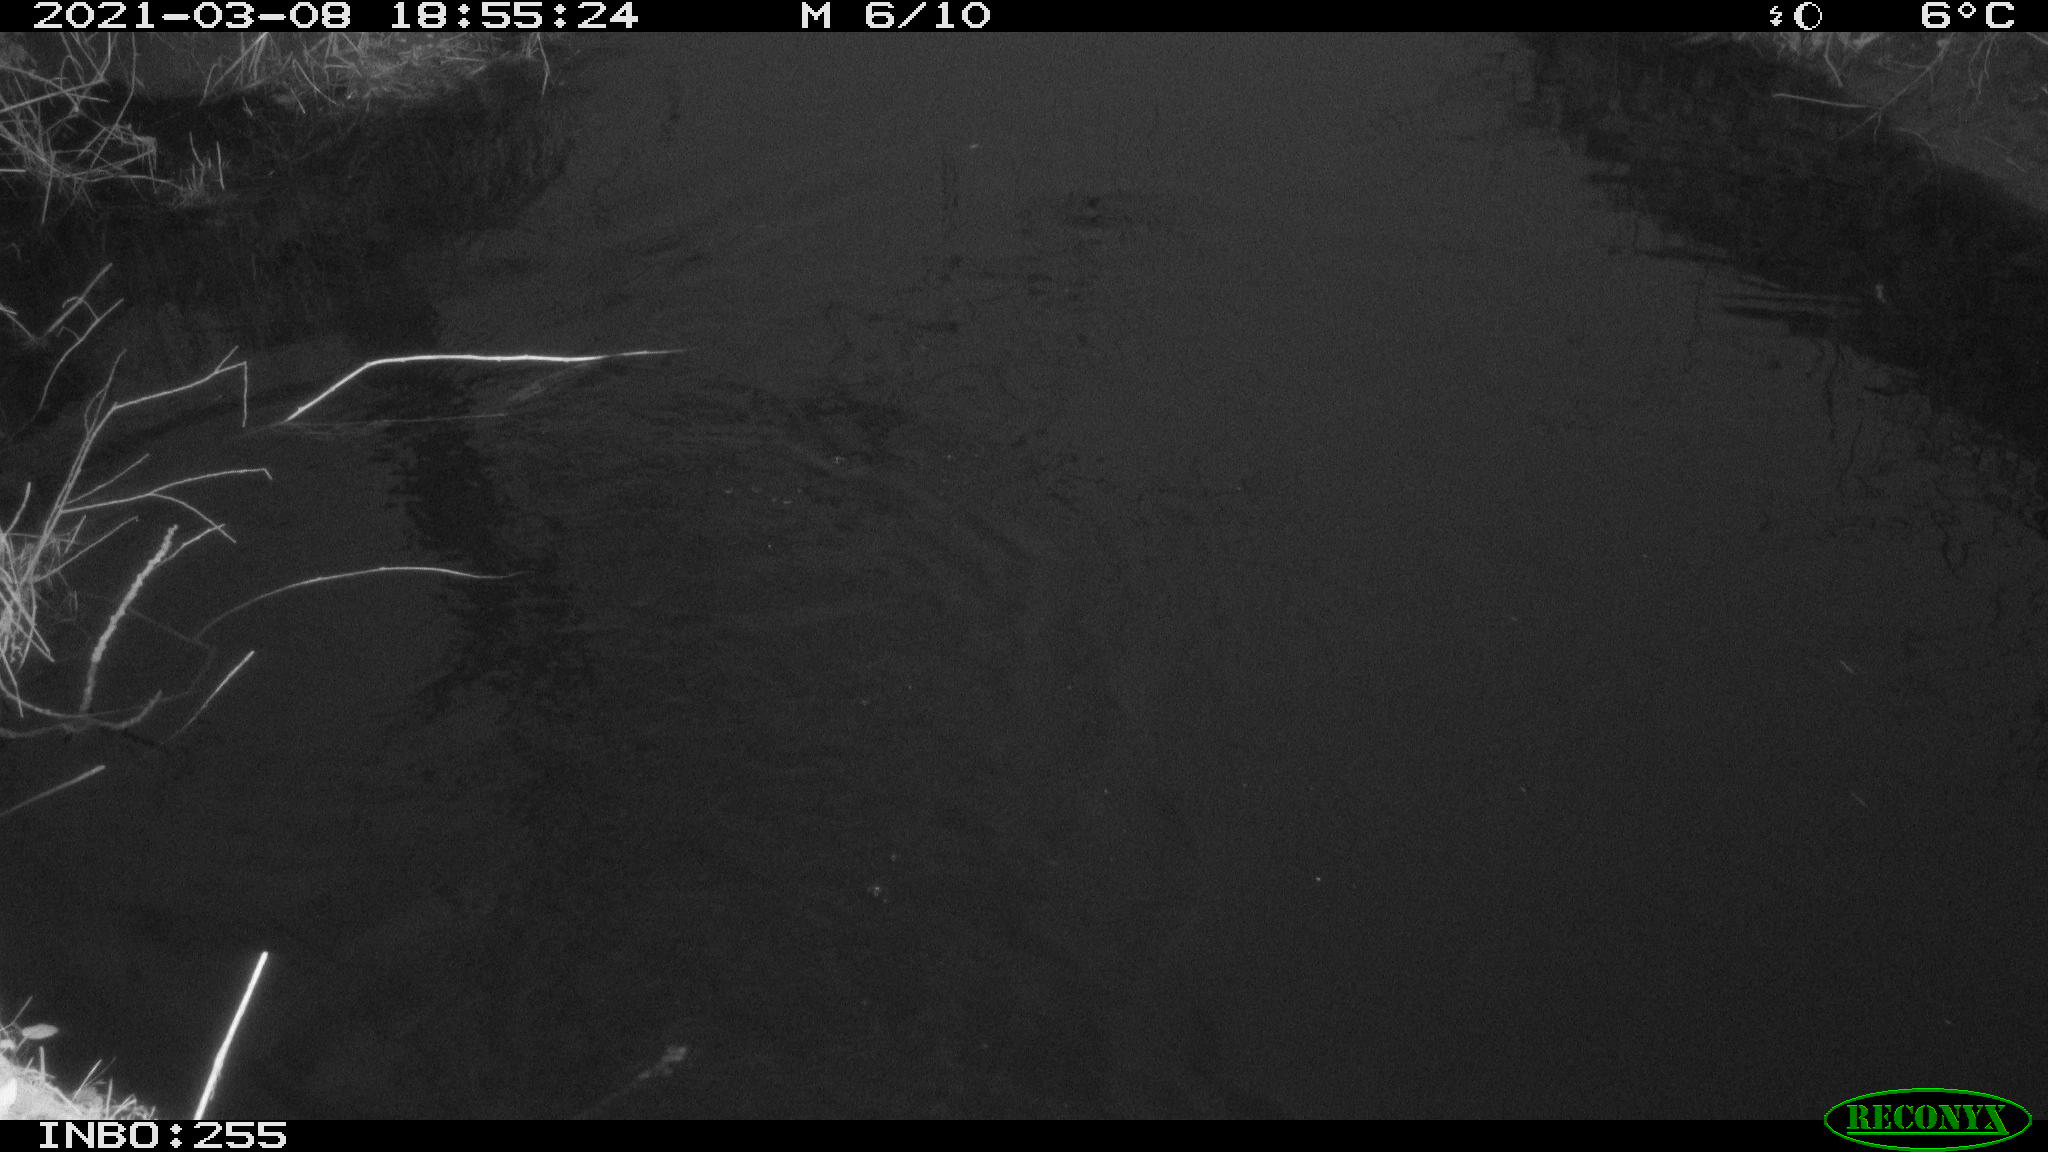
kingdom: Animalia
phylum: Chordata
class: Aves
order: Gruiformes
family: Rallidae
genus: Gallinula
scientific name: Gallinula chloropus
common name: Common moorhen
